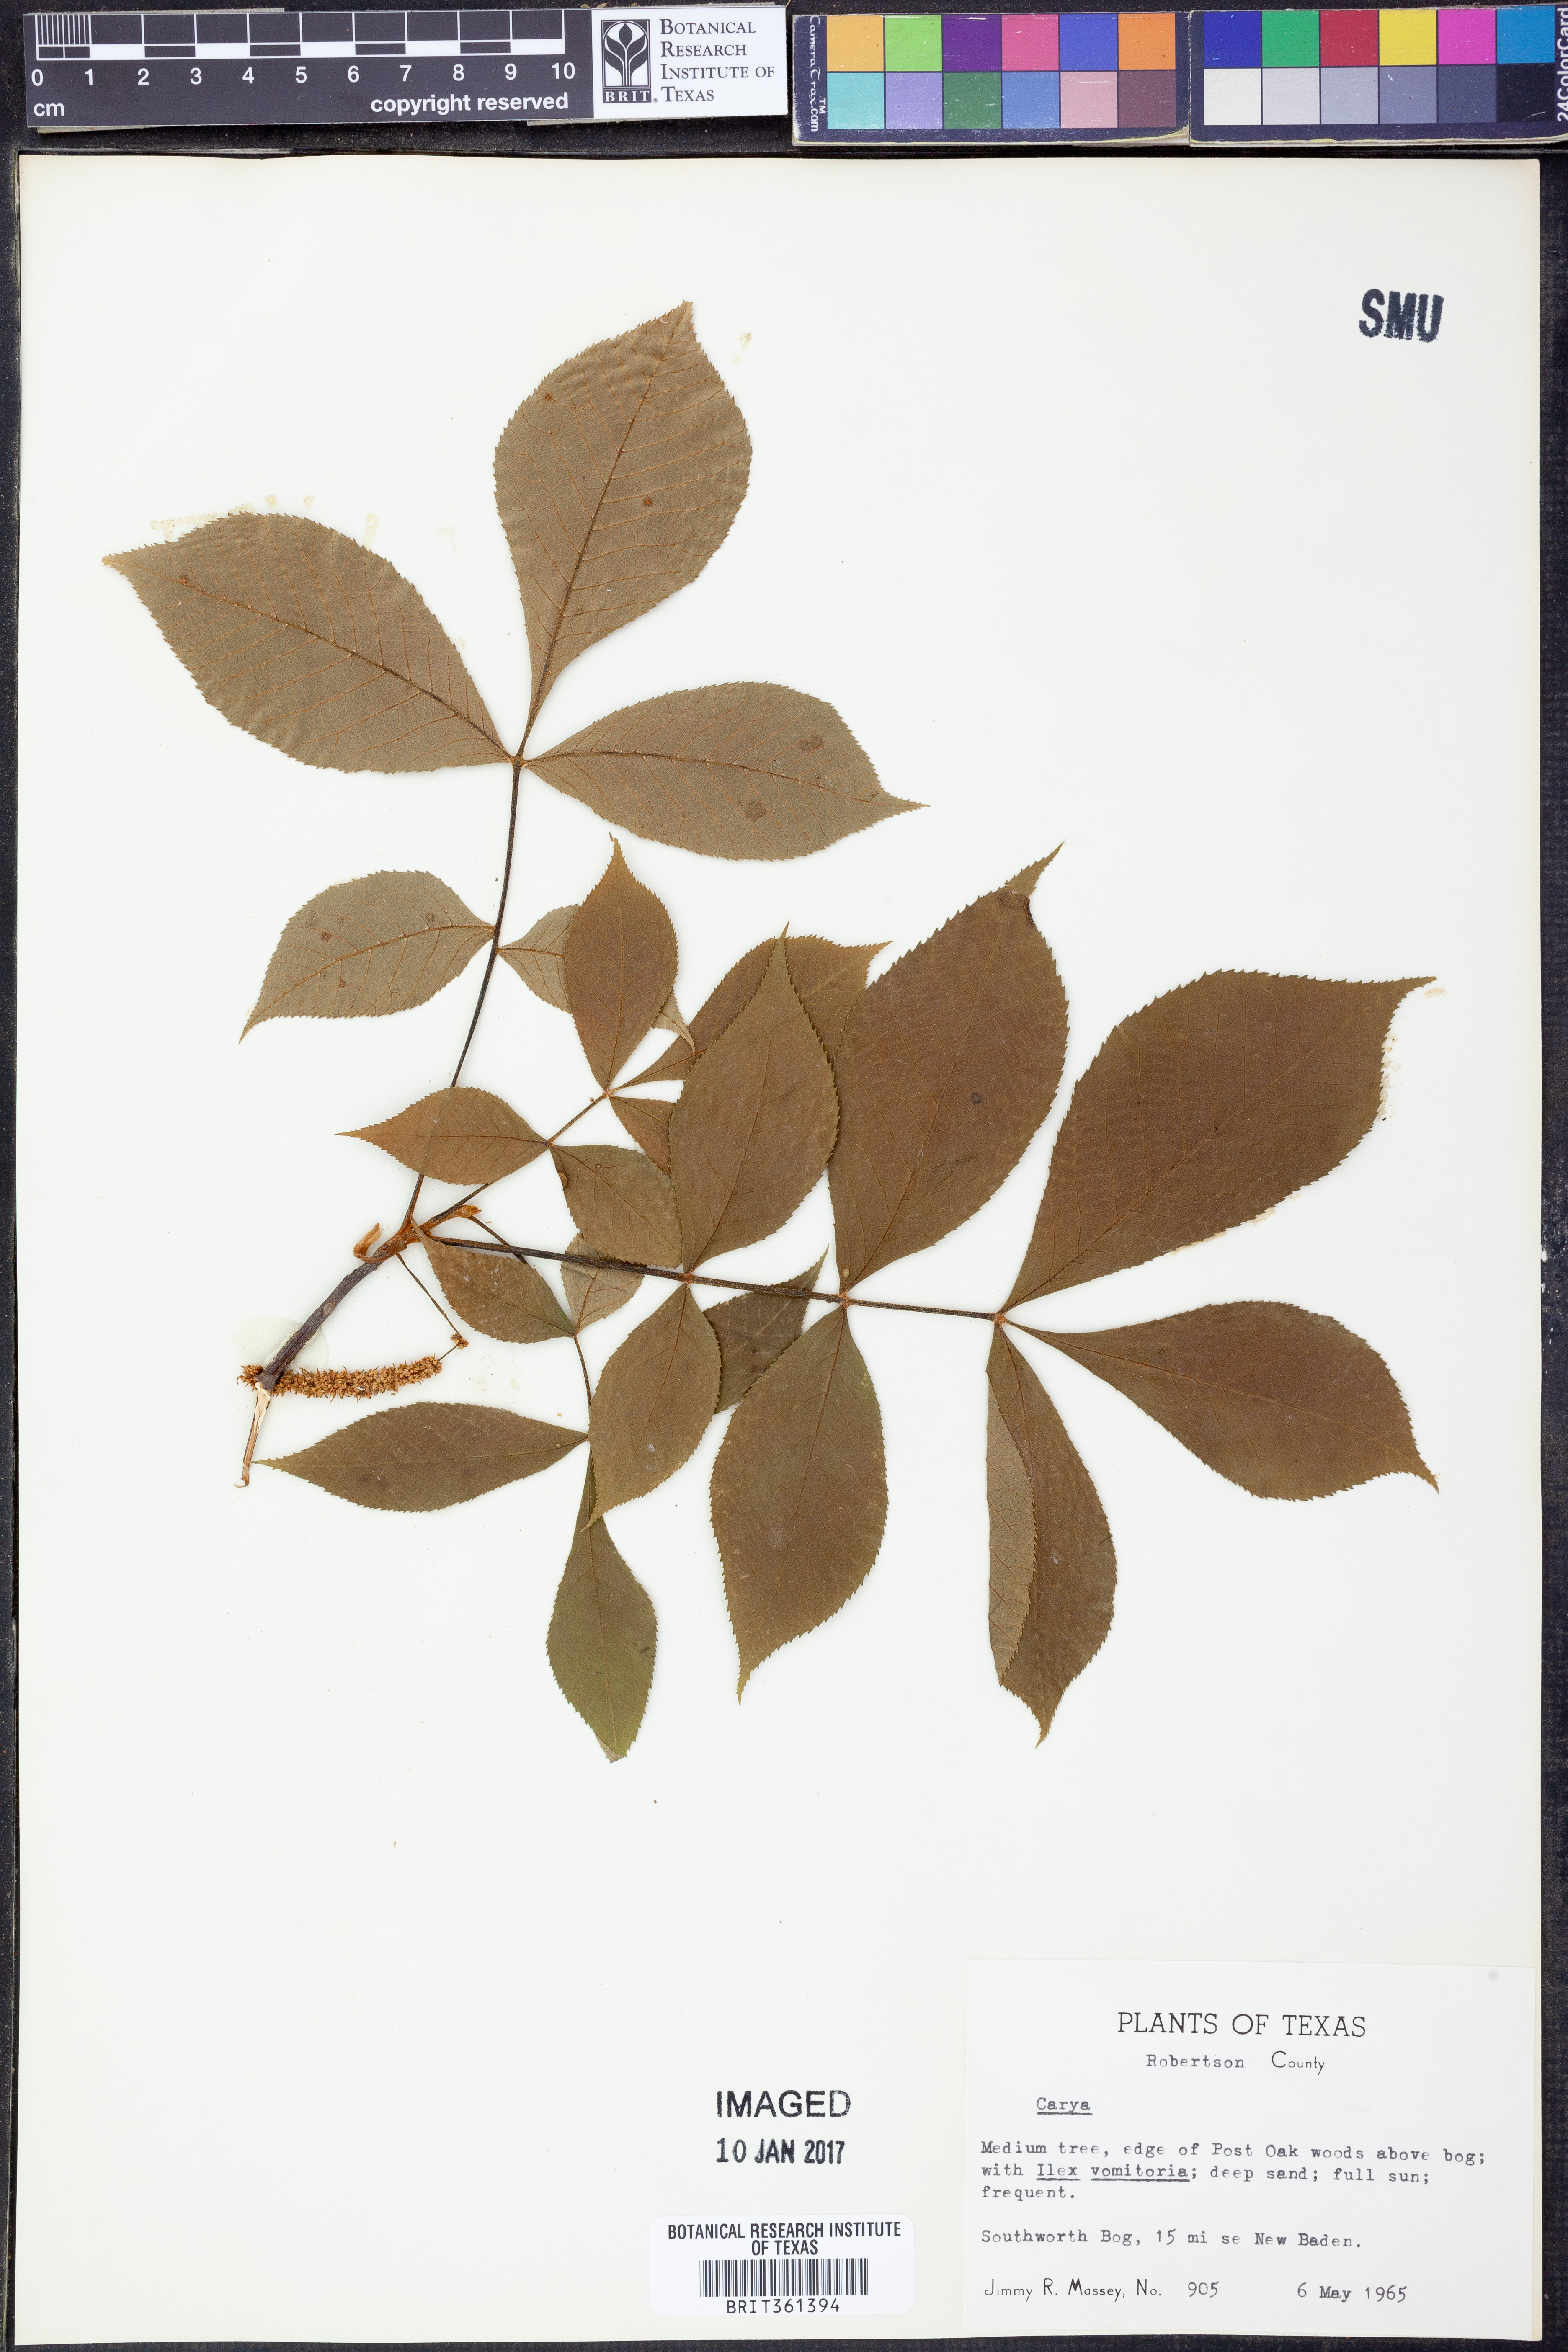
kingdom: Plantae
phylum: Tracheophyta
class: Magnoliopsida
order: Fagales
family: Juglandaceae
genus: Carya
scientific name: Carya
